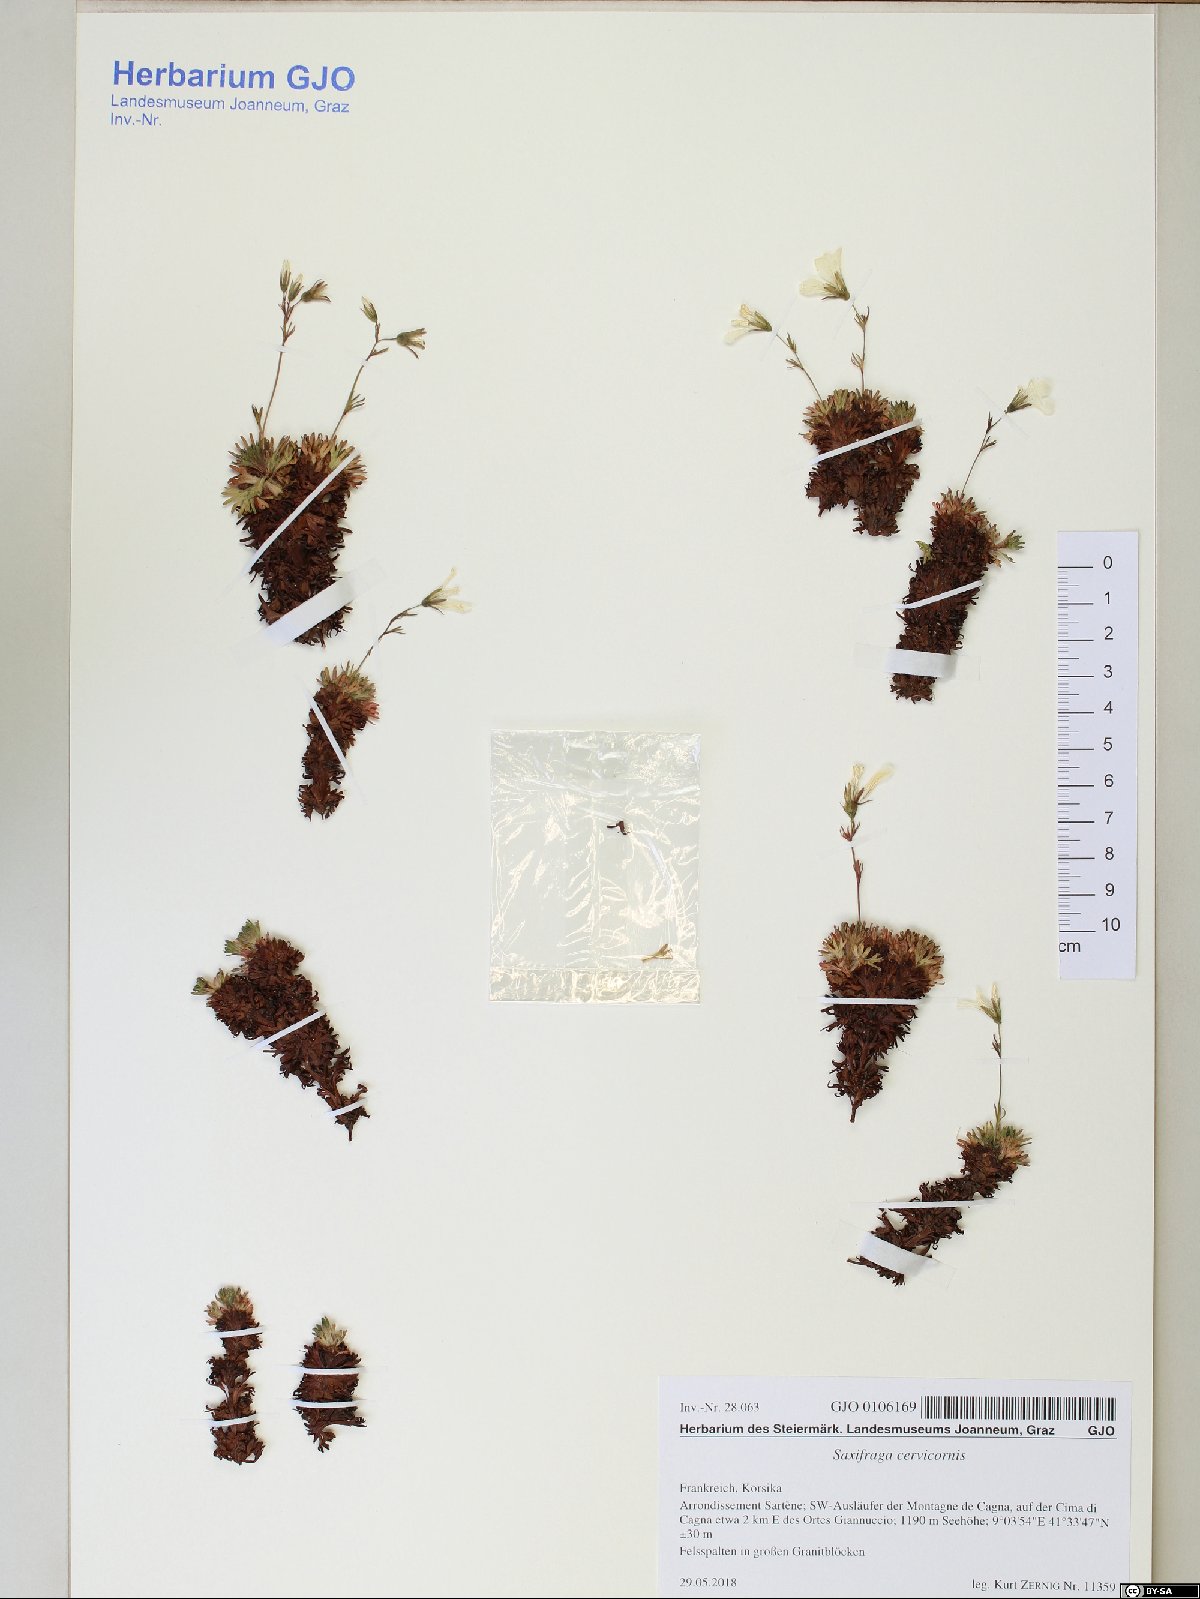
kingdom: Plantae
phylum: Tracheophyta
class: Magnoliopsida
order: Saxifragales
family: Saxifragaceae
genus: Saxifraga
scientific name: Saxifraga pedemontana
